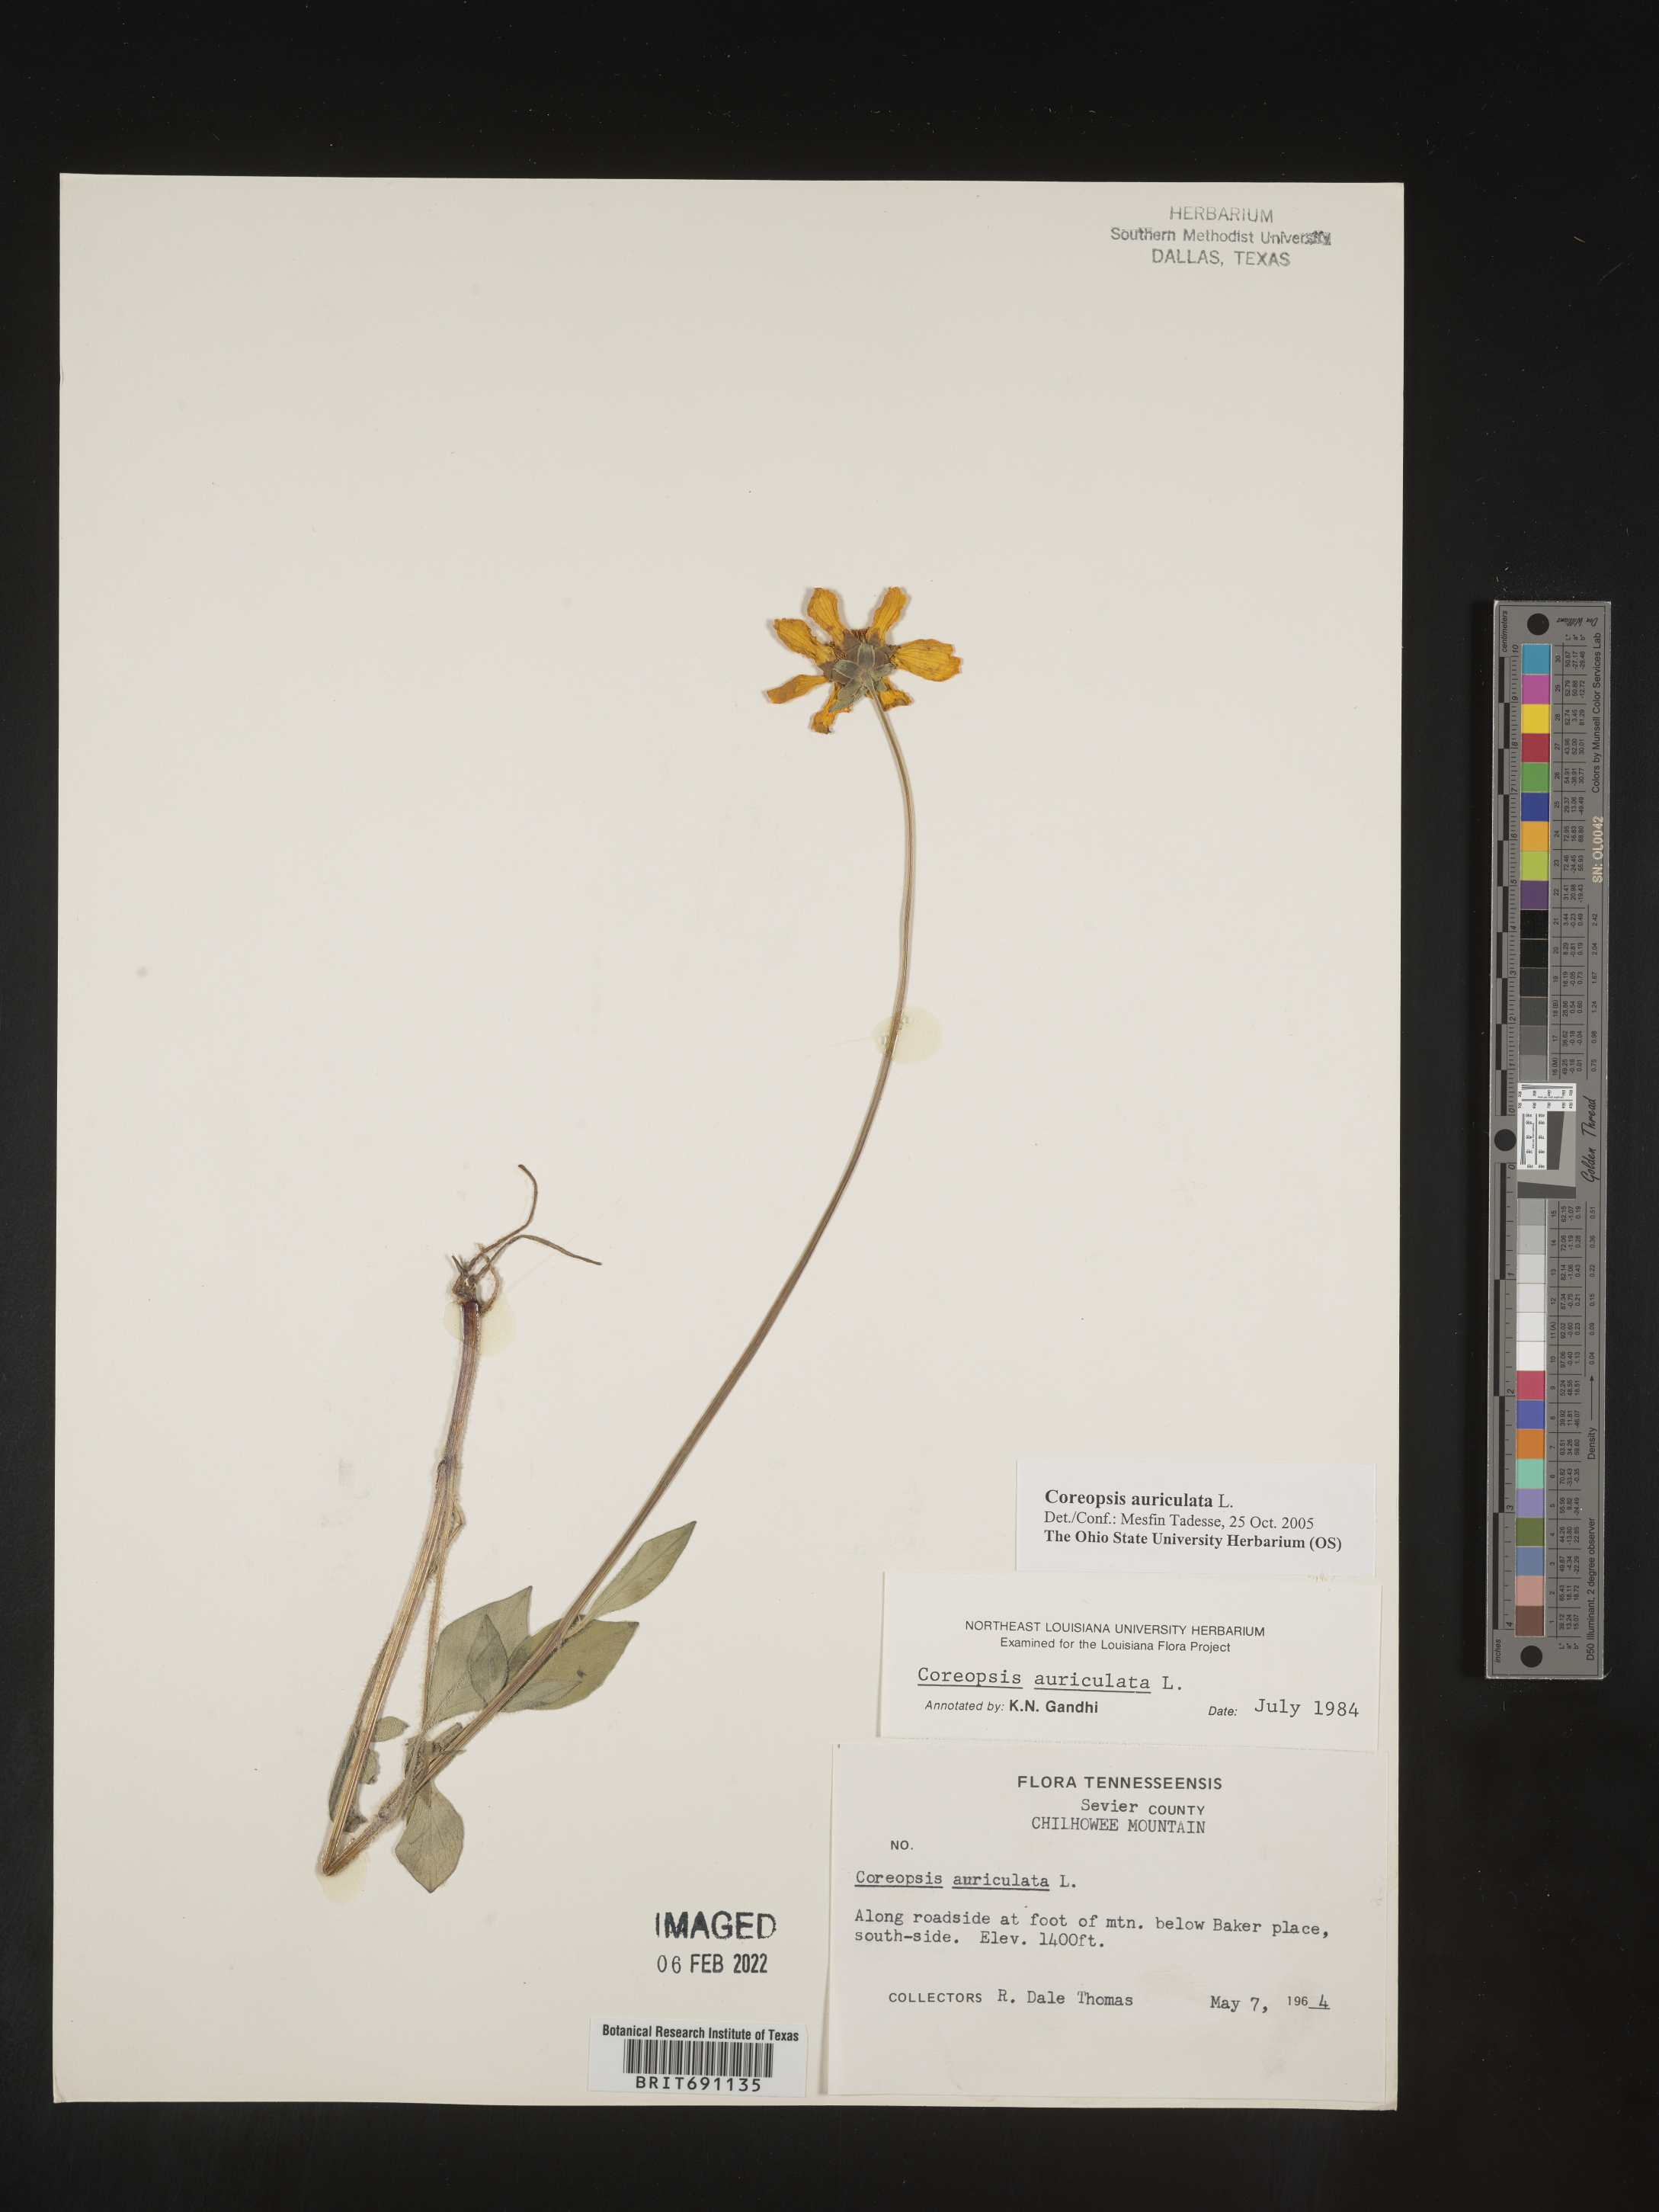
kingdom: Plantae
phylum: Tracheophyta
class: Magnoliopsida
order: Asterales
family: Asteraceae
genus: Coreopsis
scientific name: Coreopsis auriculata
